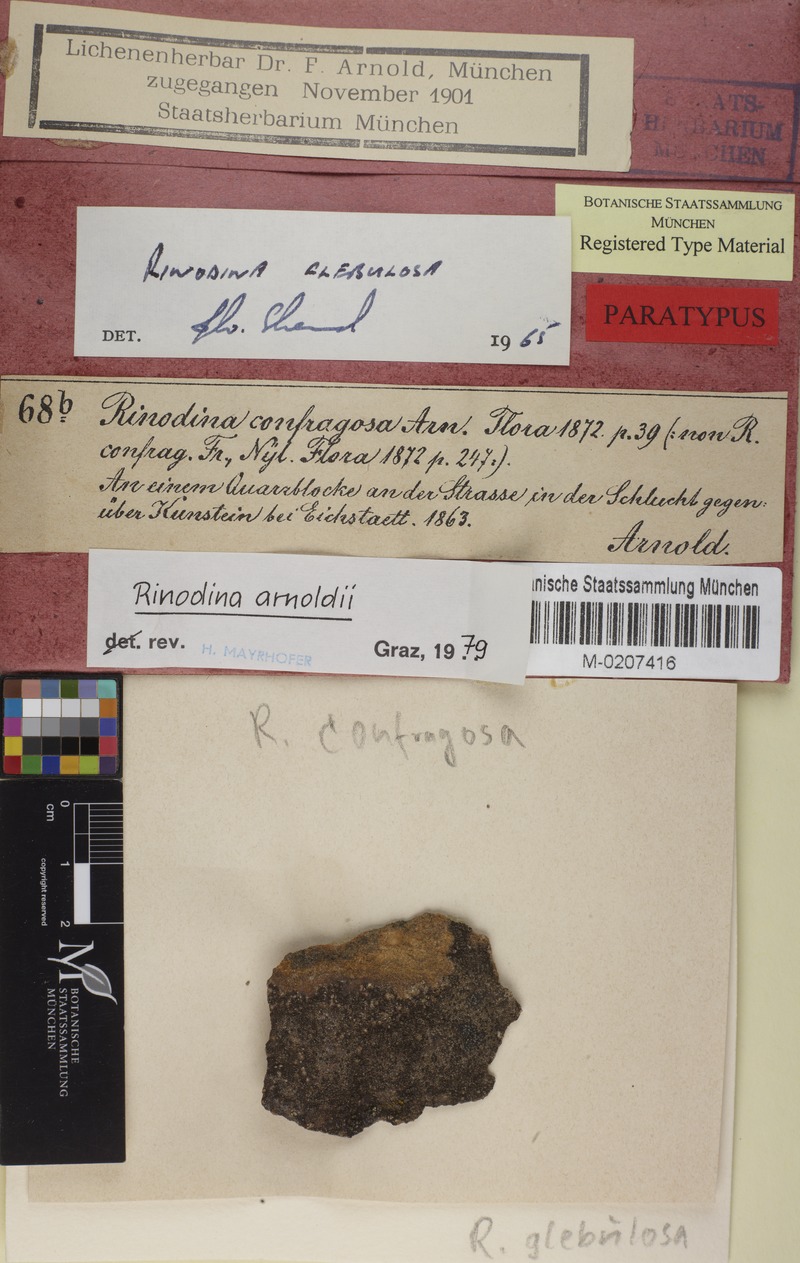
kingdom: Fungi
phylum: Ascomycota
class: Lecanoromycetes
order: Caliciales
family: Physciaceae
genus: Rinodina
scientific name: Rinodina arnoldii
